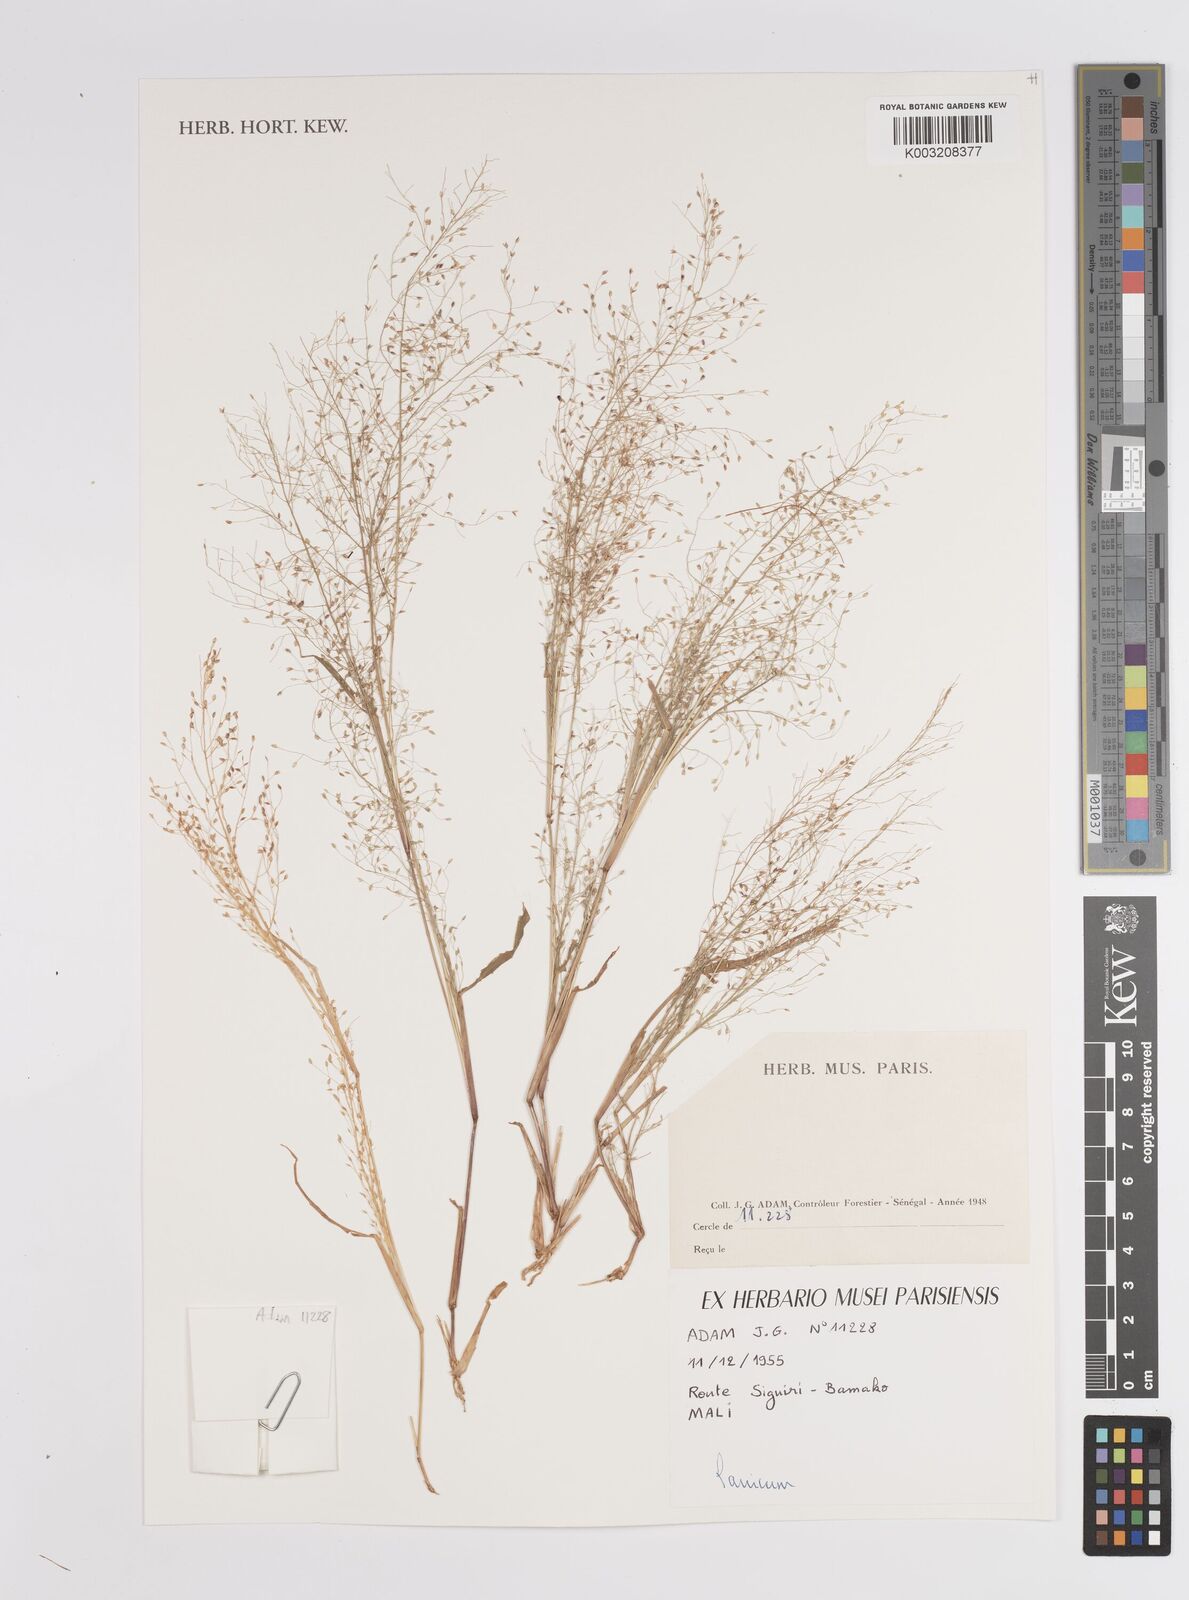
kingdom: Plantae
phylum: Tracheophyta
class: Liliopsida
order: Poales
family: Poaceae
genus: Panicum
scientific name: Panicum
